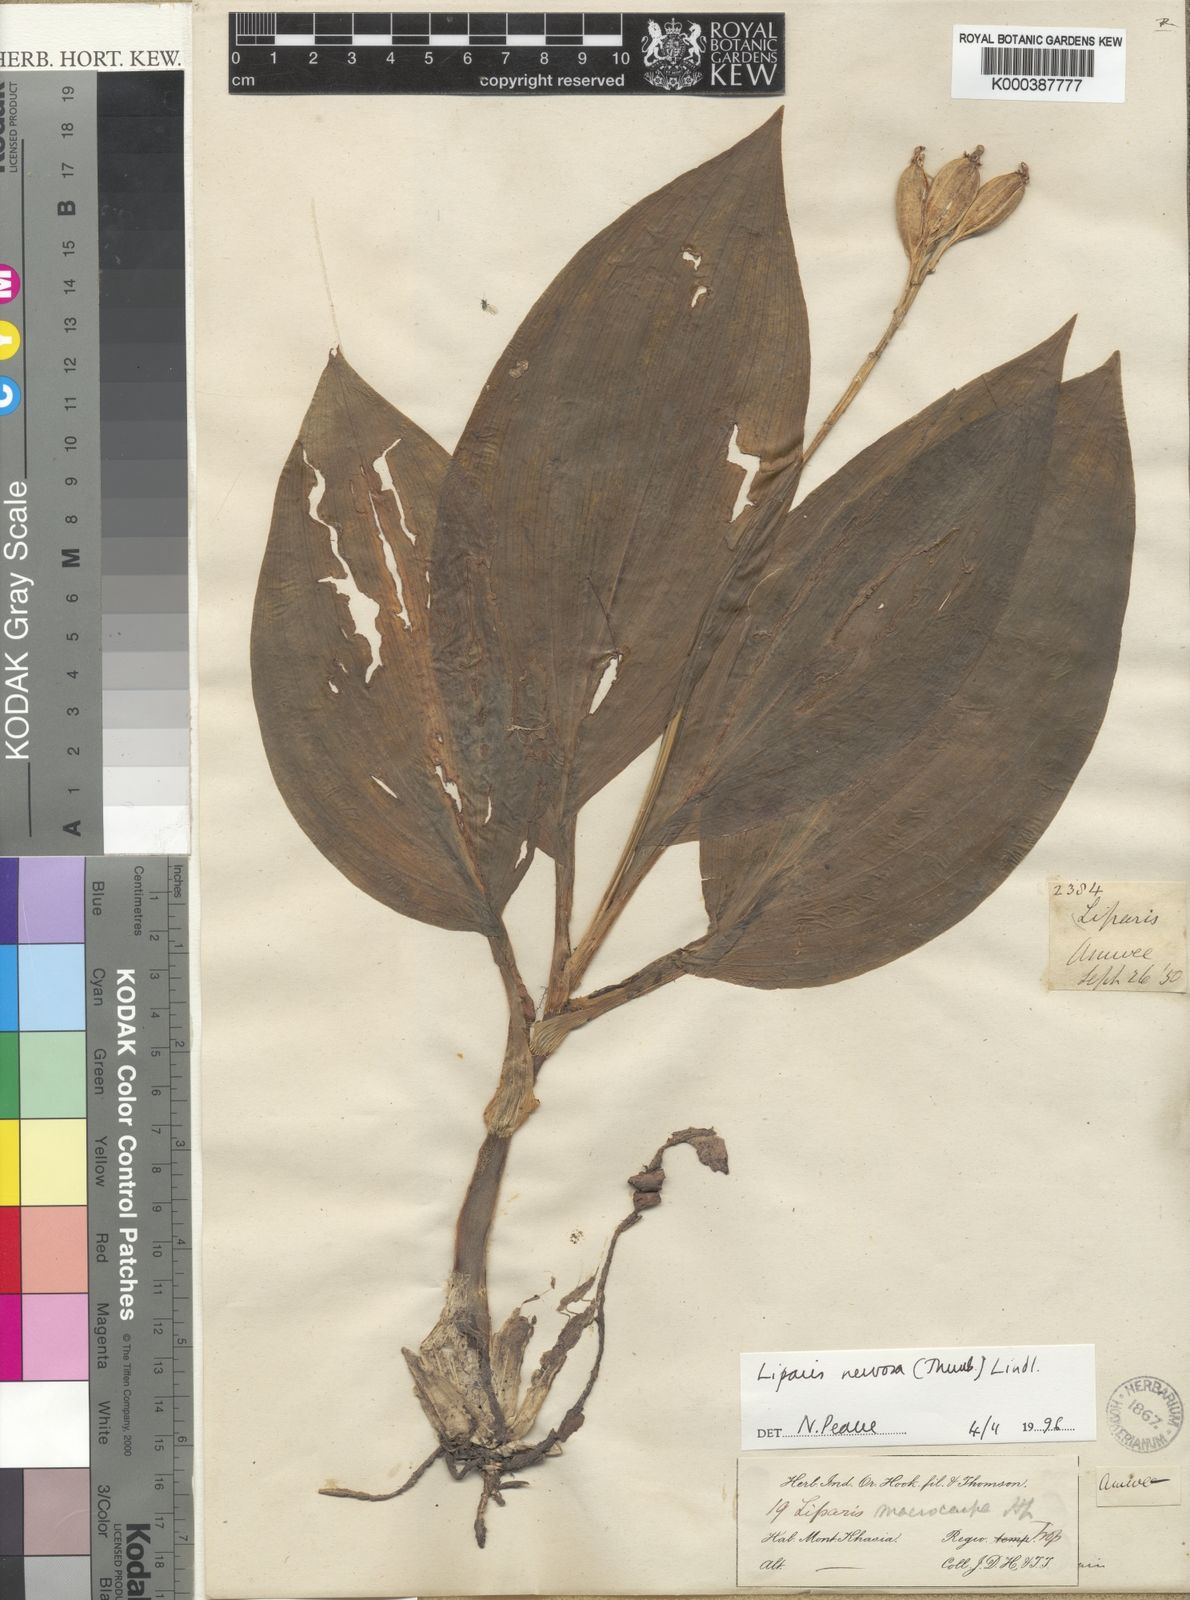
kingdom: Plantae
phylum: Tracheophyta
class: Liliopsida
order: Asparagales
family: Orchidaceae
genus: Liparis
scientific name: Liparis nervosa
